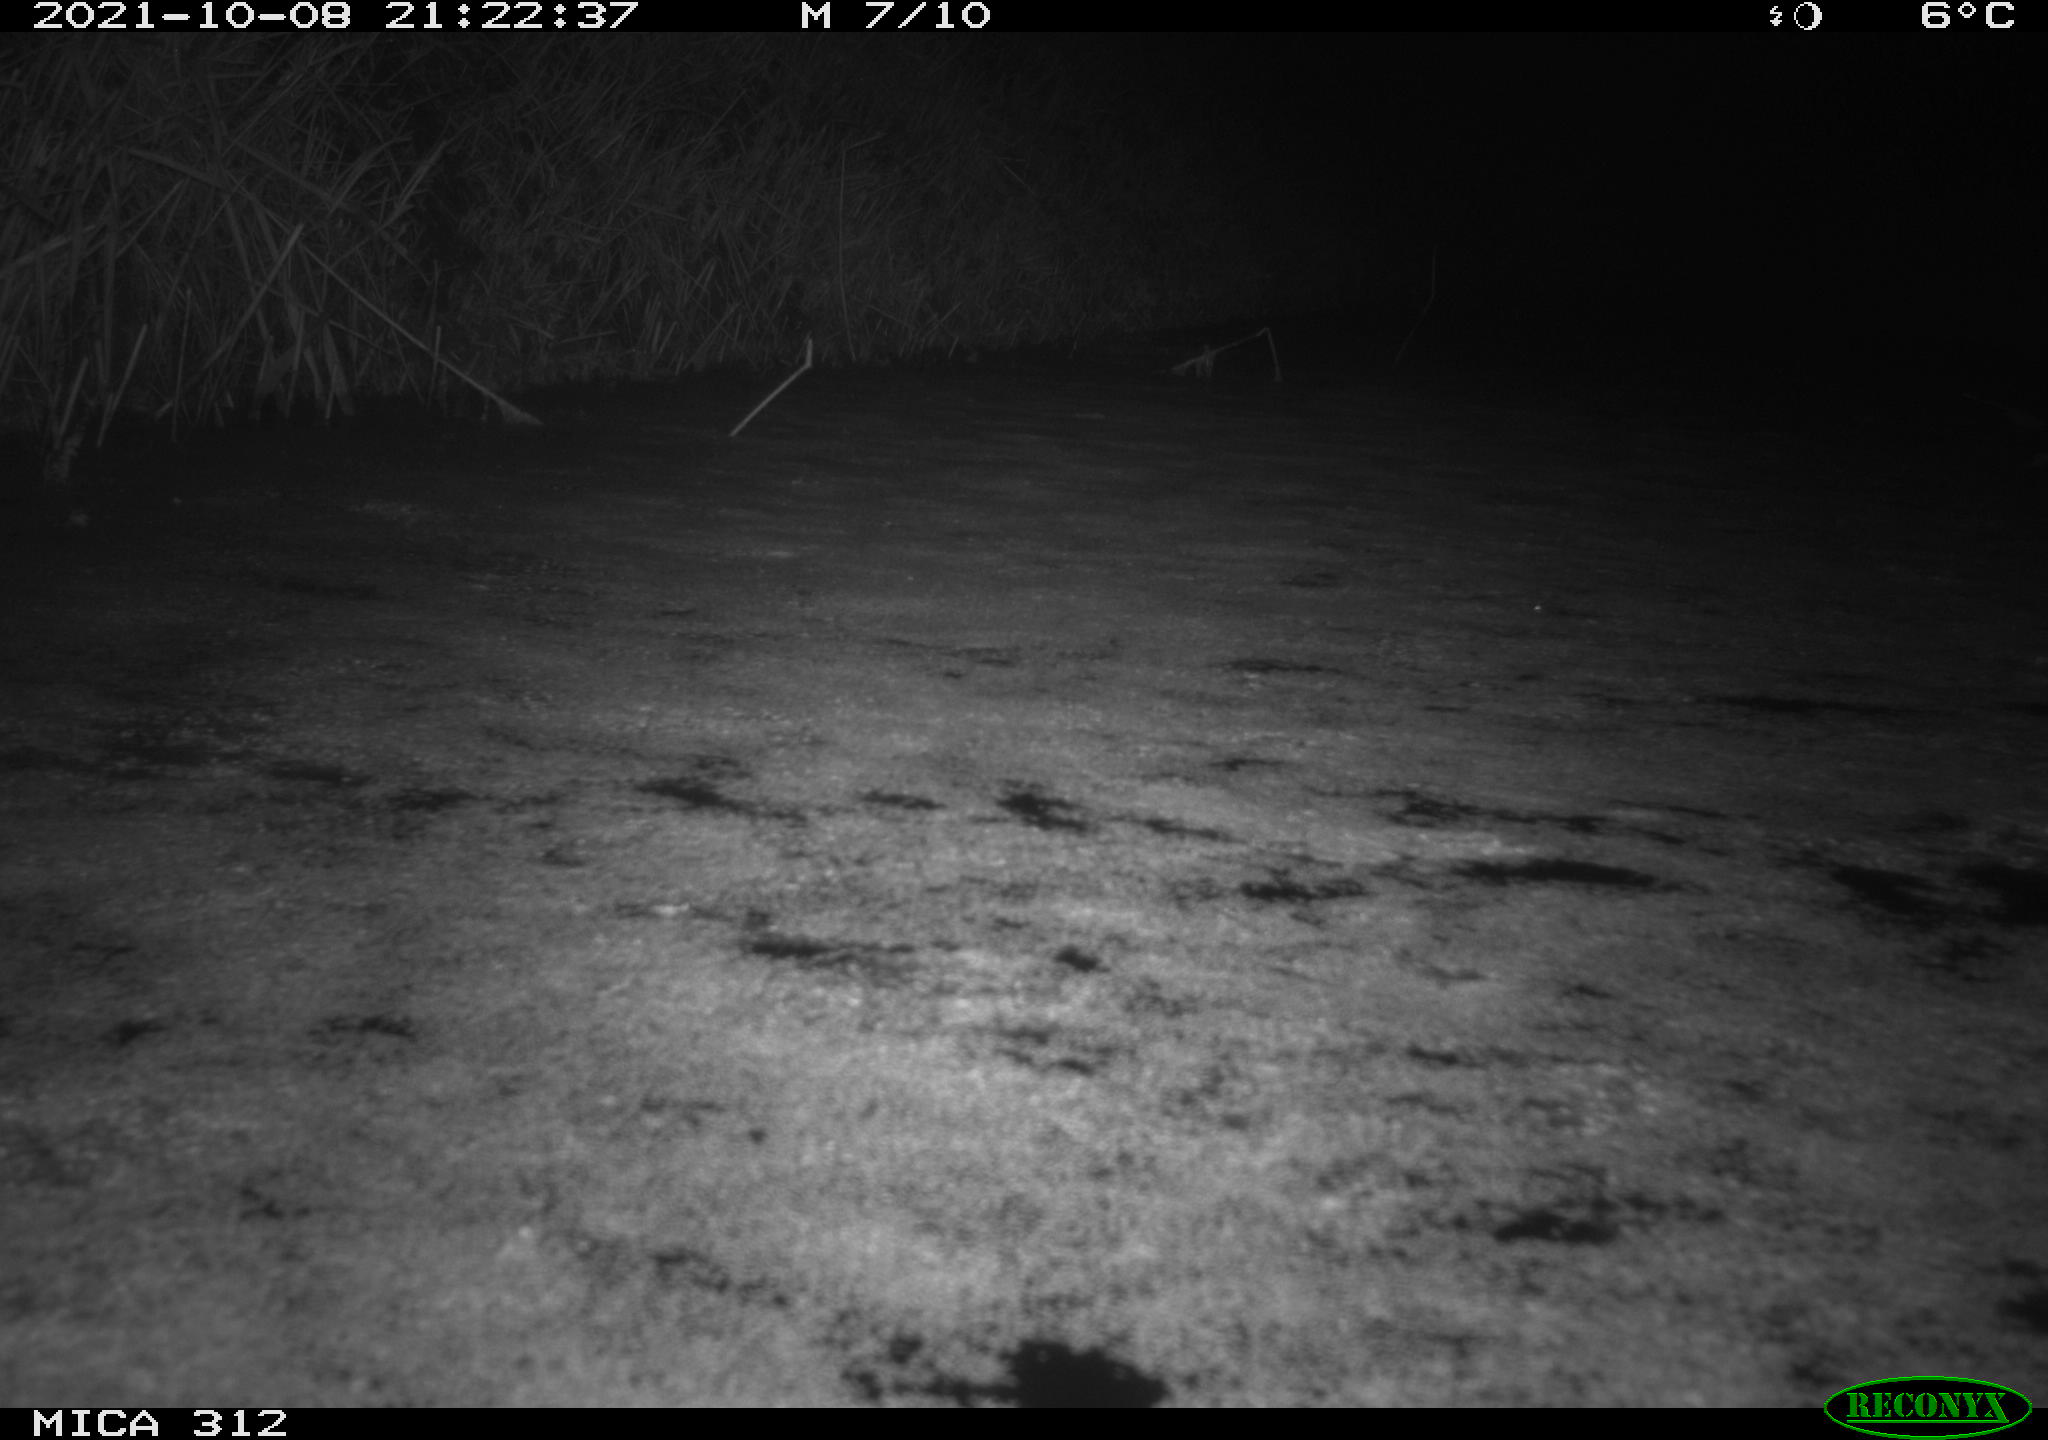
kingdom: Animalia
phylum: Chordata
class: Mammalia
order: Rodentia
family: Muridae
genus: Rattus
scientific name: Rattus norvegicus
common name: Brown rat
